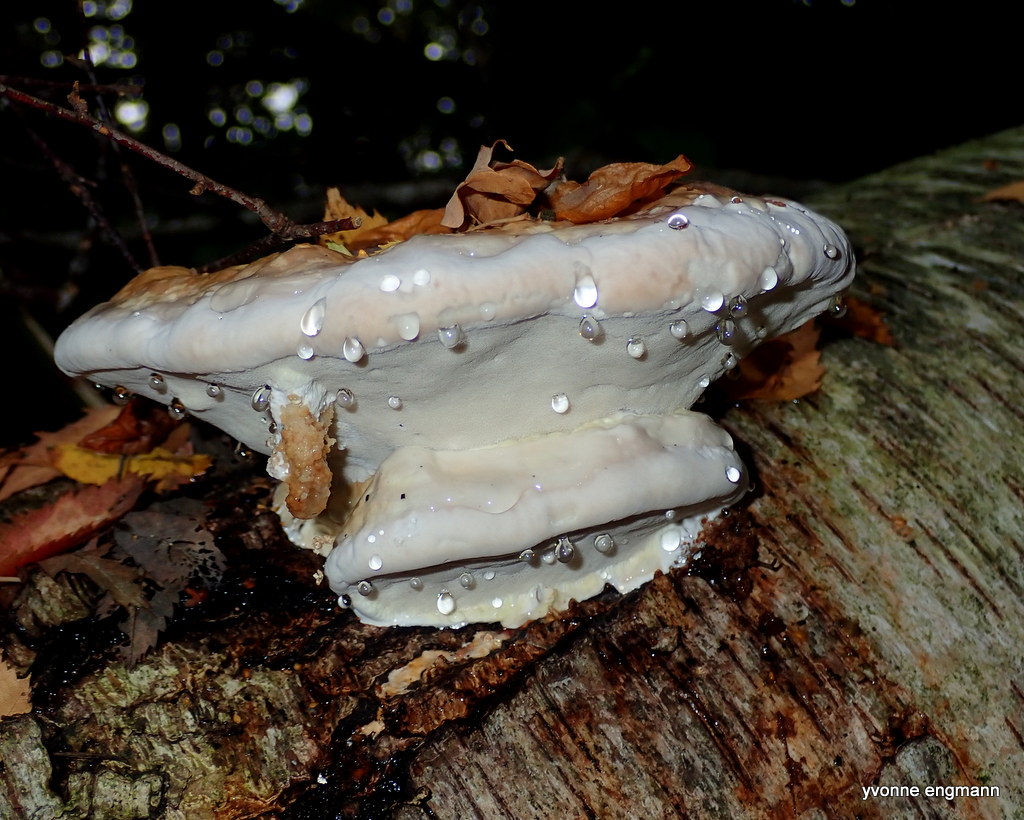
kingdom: Fungi
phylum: Basidiomycota
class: Agaricomycetes
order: Polyporales
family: Fomitopsidaceae
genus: Fomitopsis
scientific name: Fomitopsis pinicola
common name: randbæltet hovporesvamp
